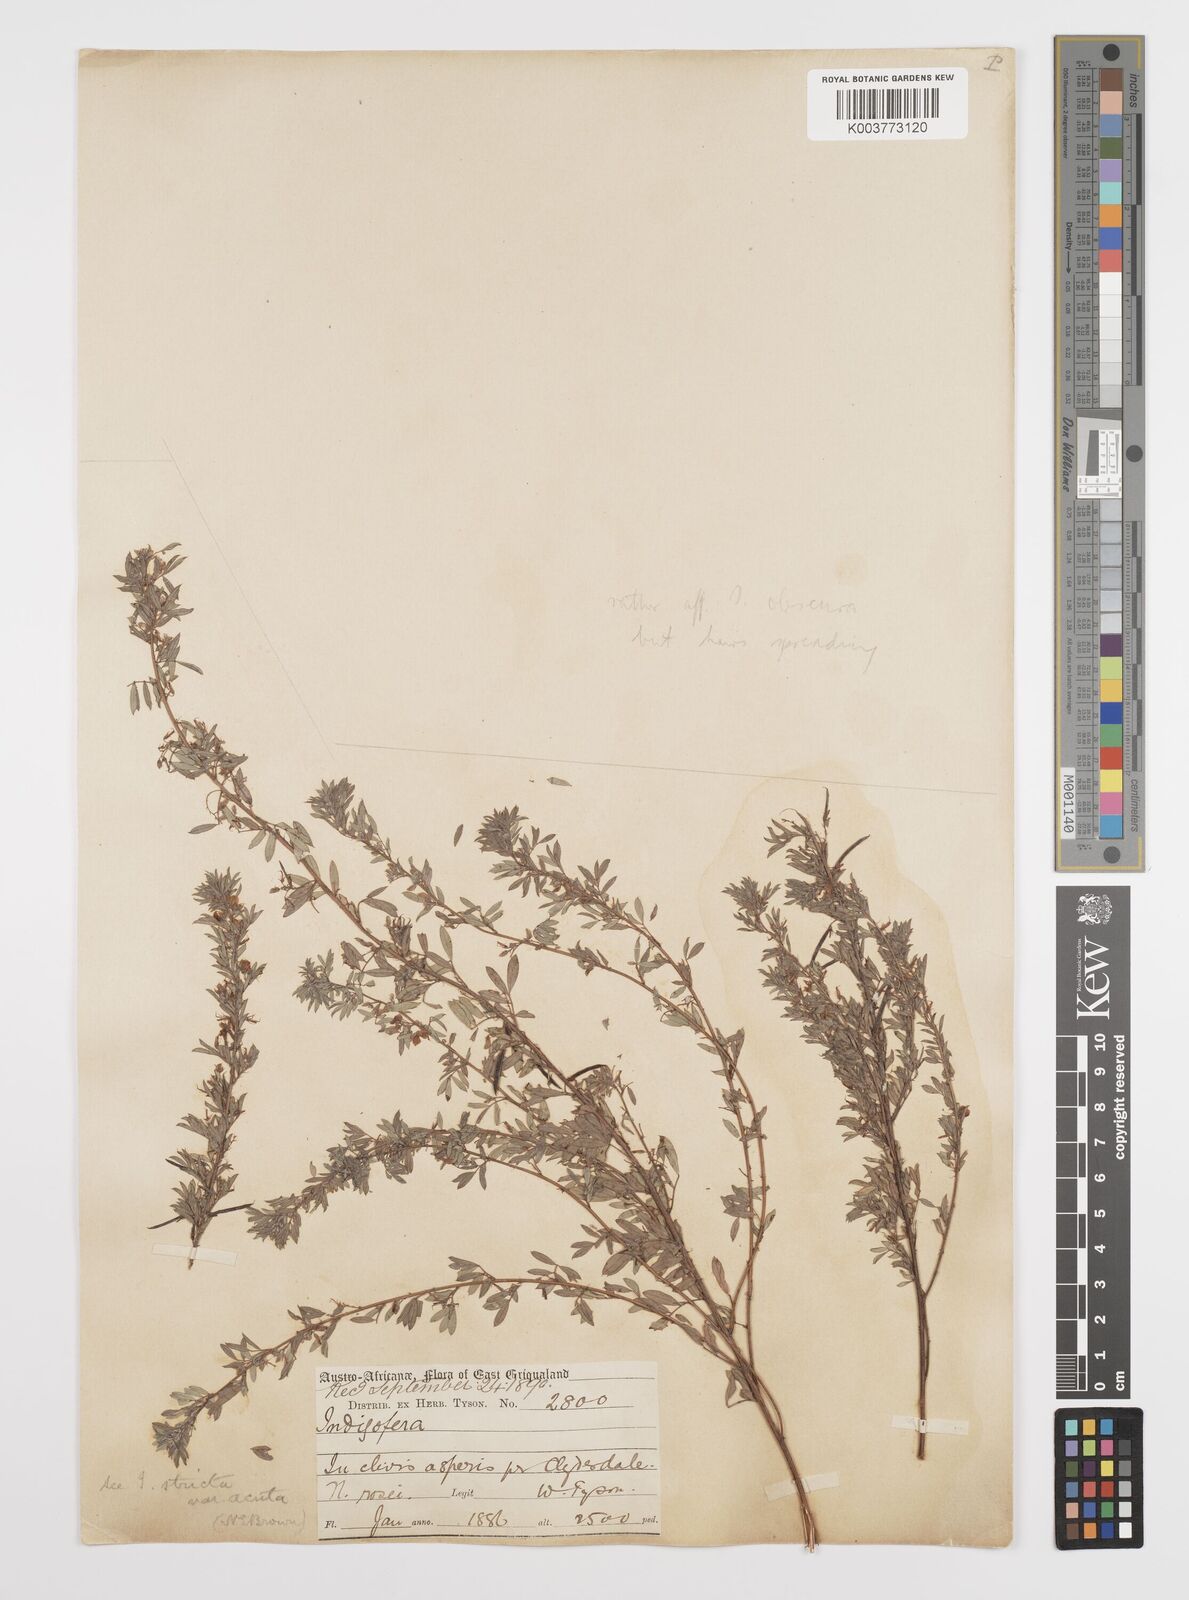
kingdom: Plantae
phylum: Tracheophyta
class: Magnoliopsida
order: Fabales
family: Fabaceae
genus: Indigofera
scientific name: Indigofera
